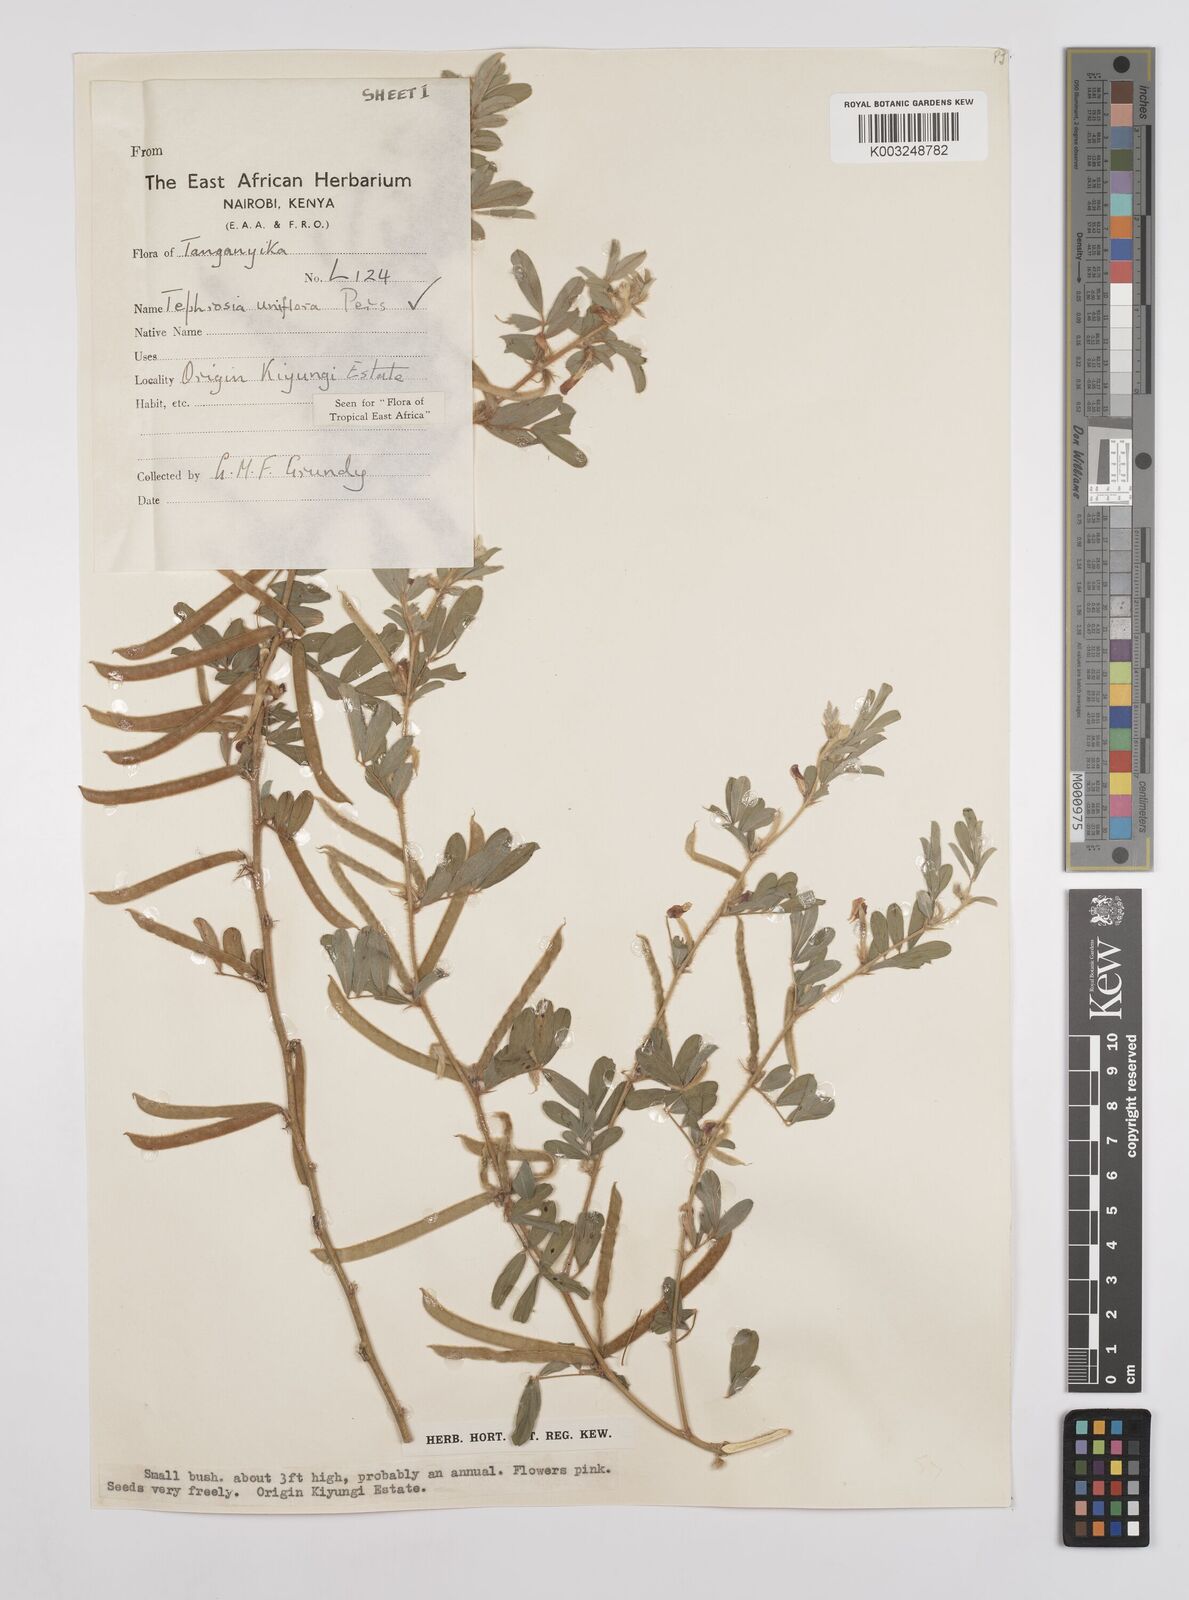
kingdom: Plantae
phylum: Tracheophyta
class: Magnoliopsida
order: Fabales
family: Fabaceae
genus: Tephrosia
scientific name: Tephrosia uniflora
